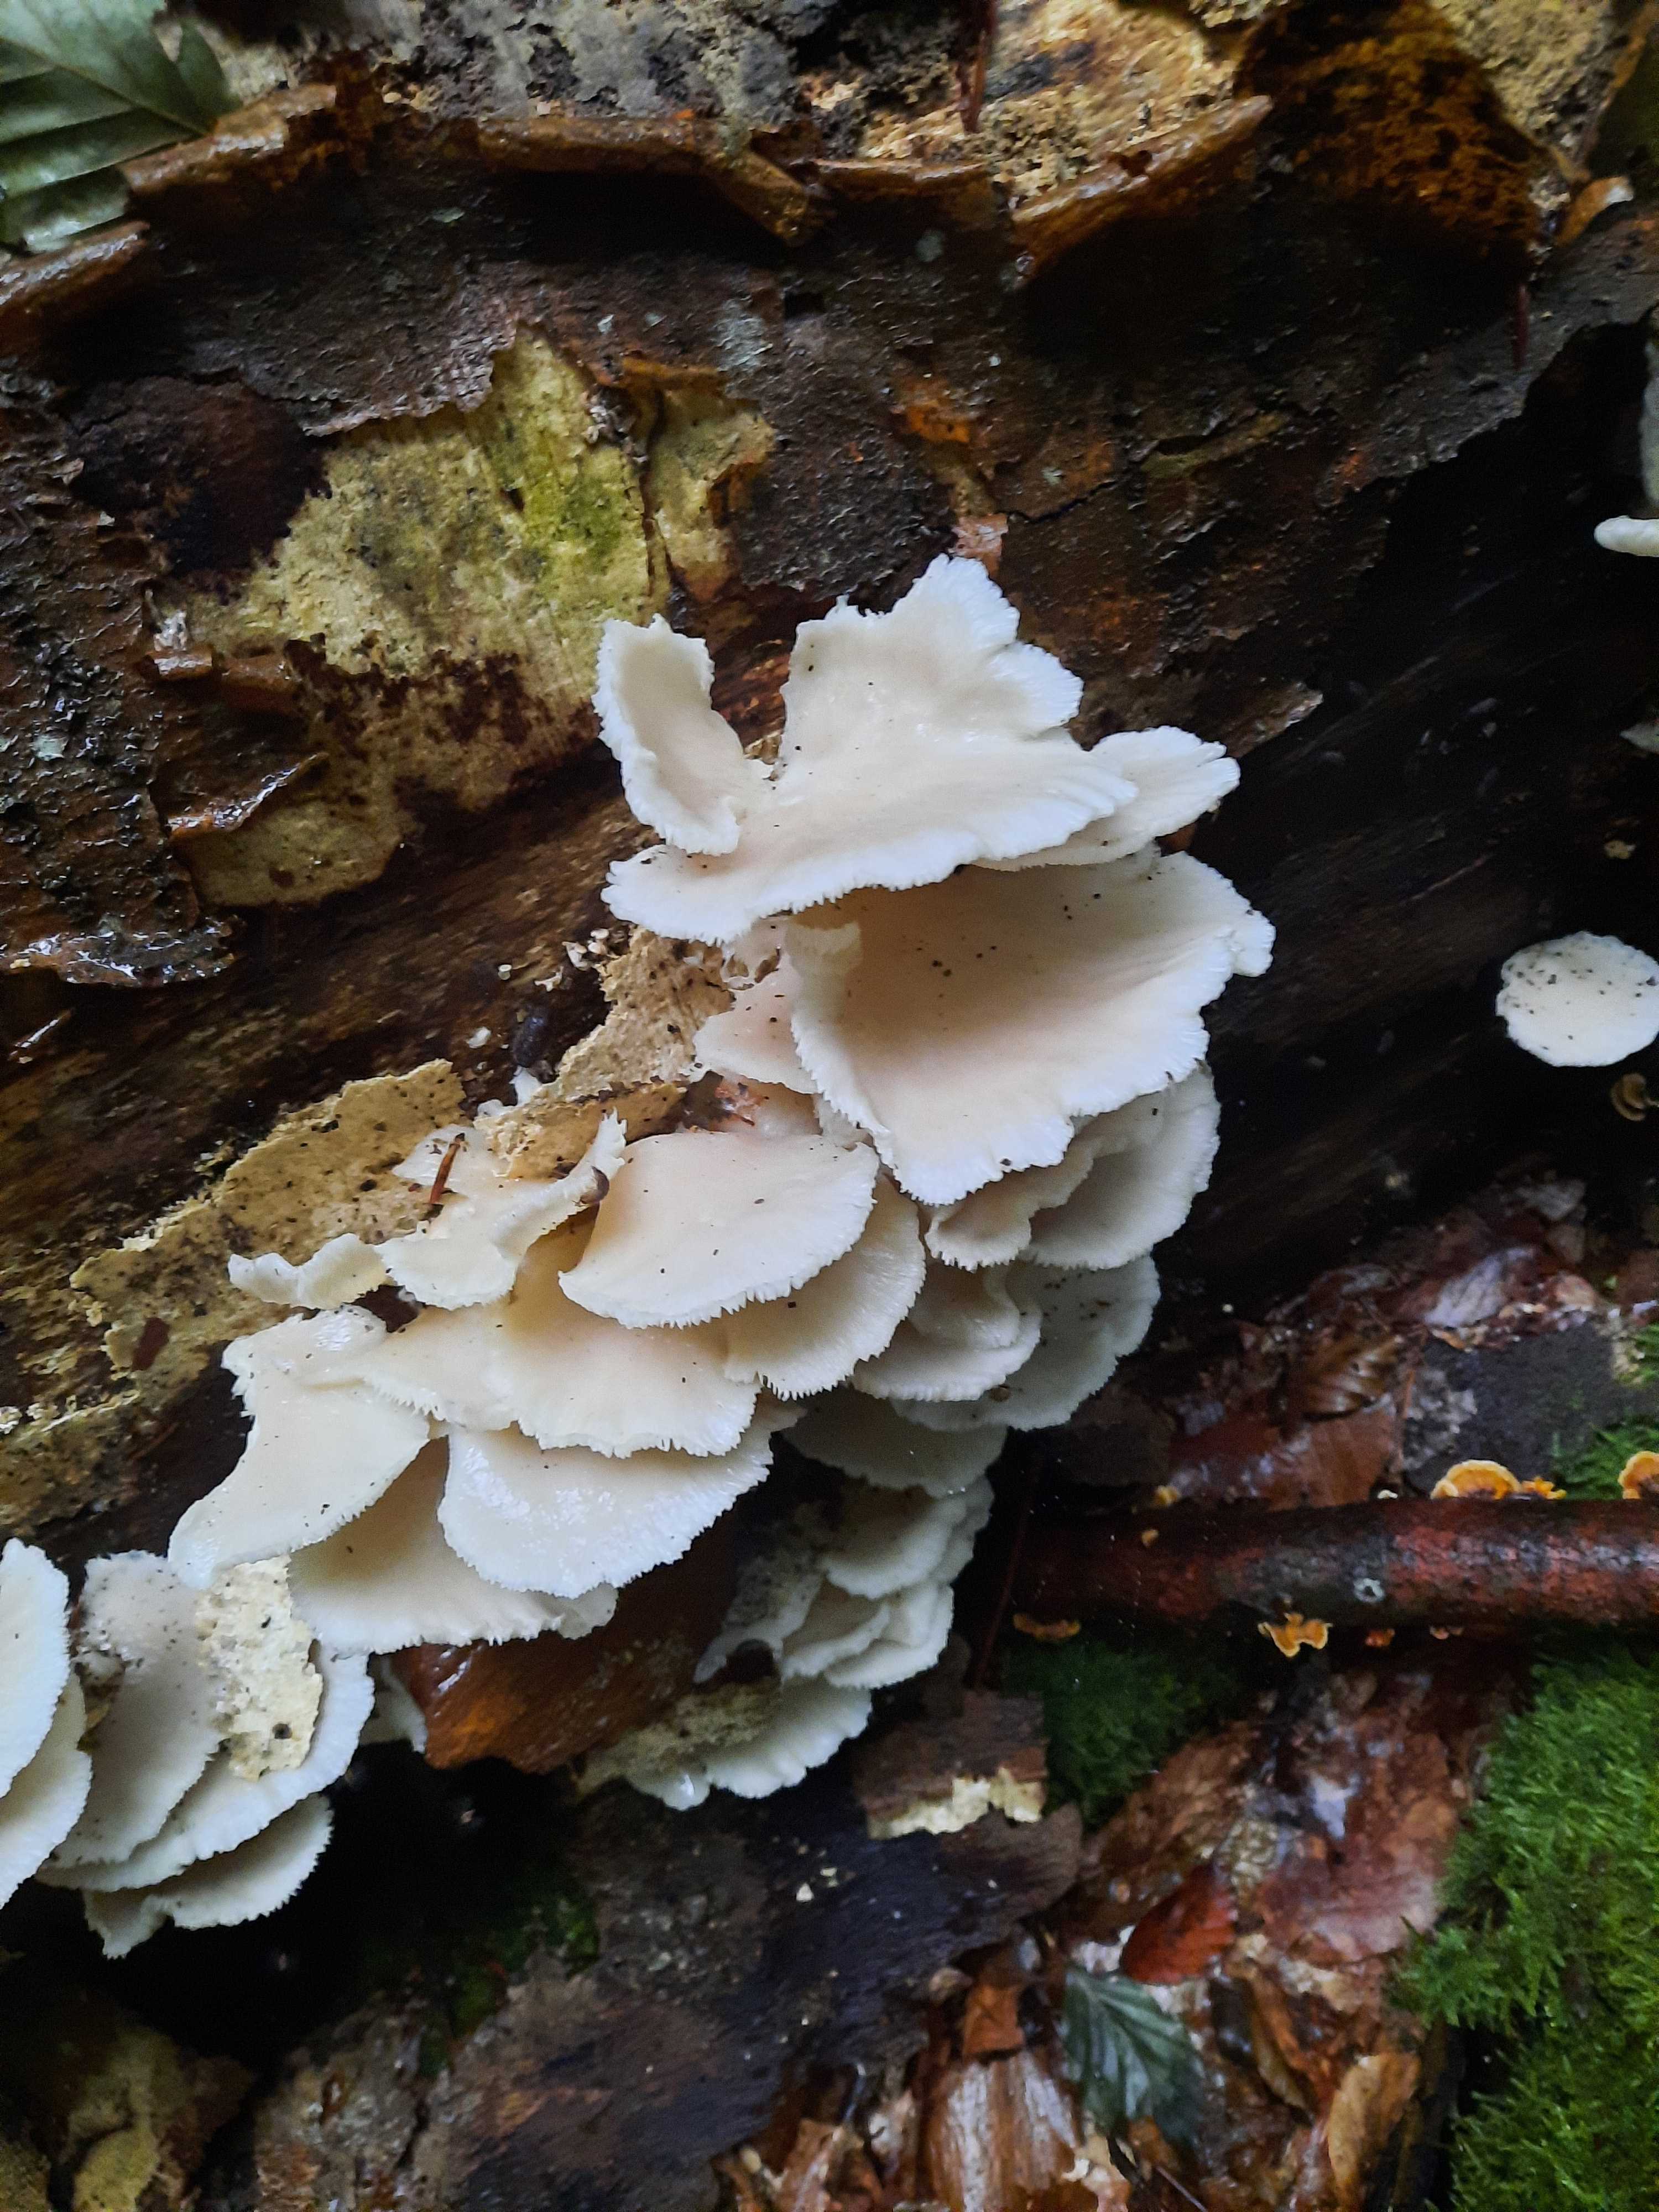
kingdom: Fungi
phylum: Basidiomycota
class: Agaricomycetes
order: Agaricales
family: Pleurotaceae
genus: Pleurotus
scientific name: Pleurotus pulmonarius
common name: sommer-østershat
